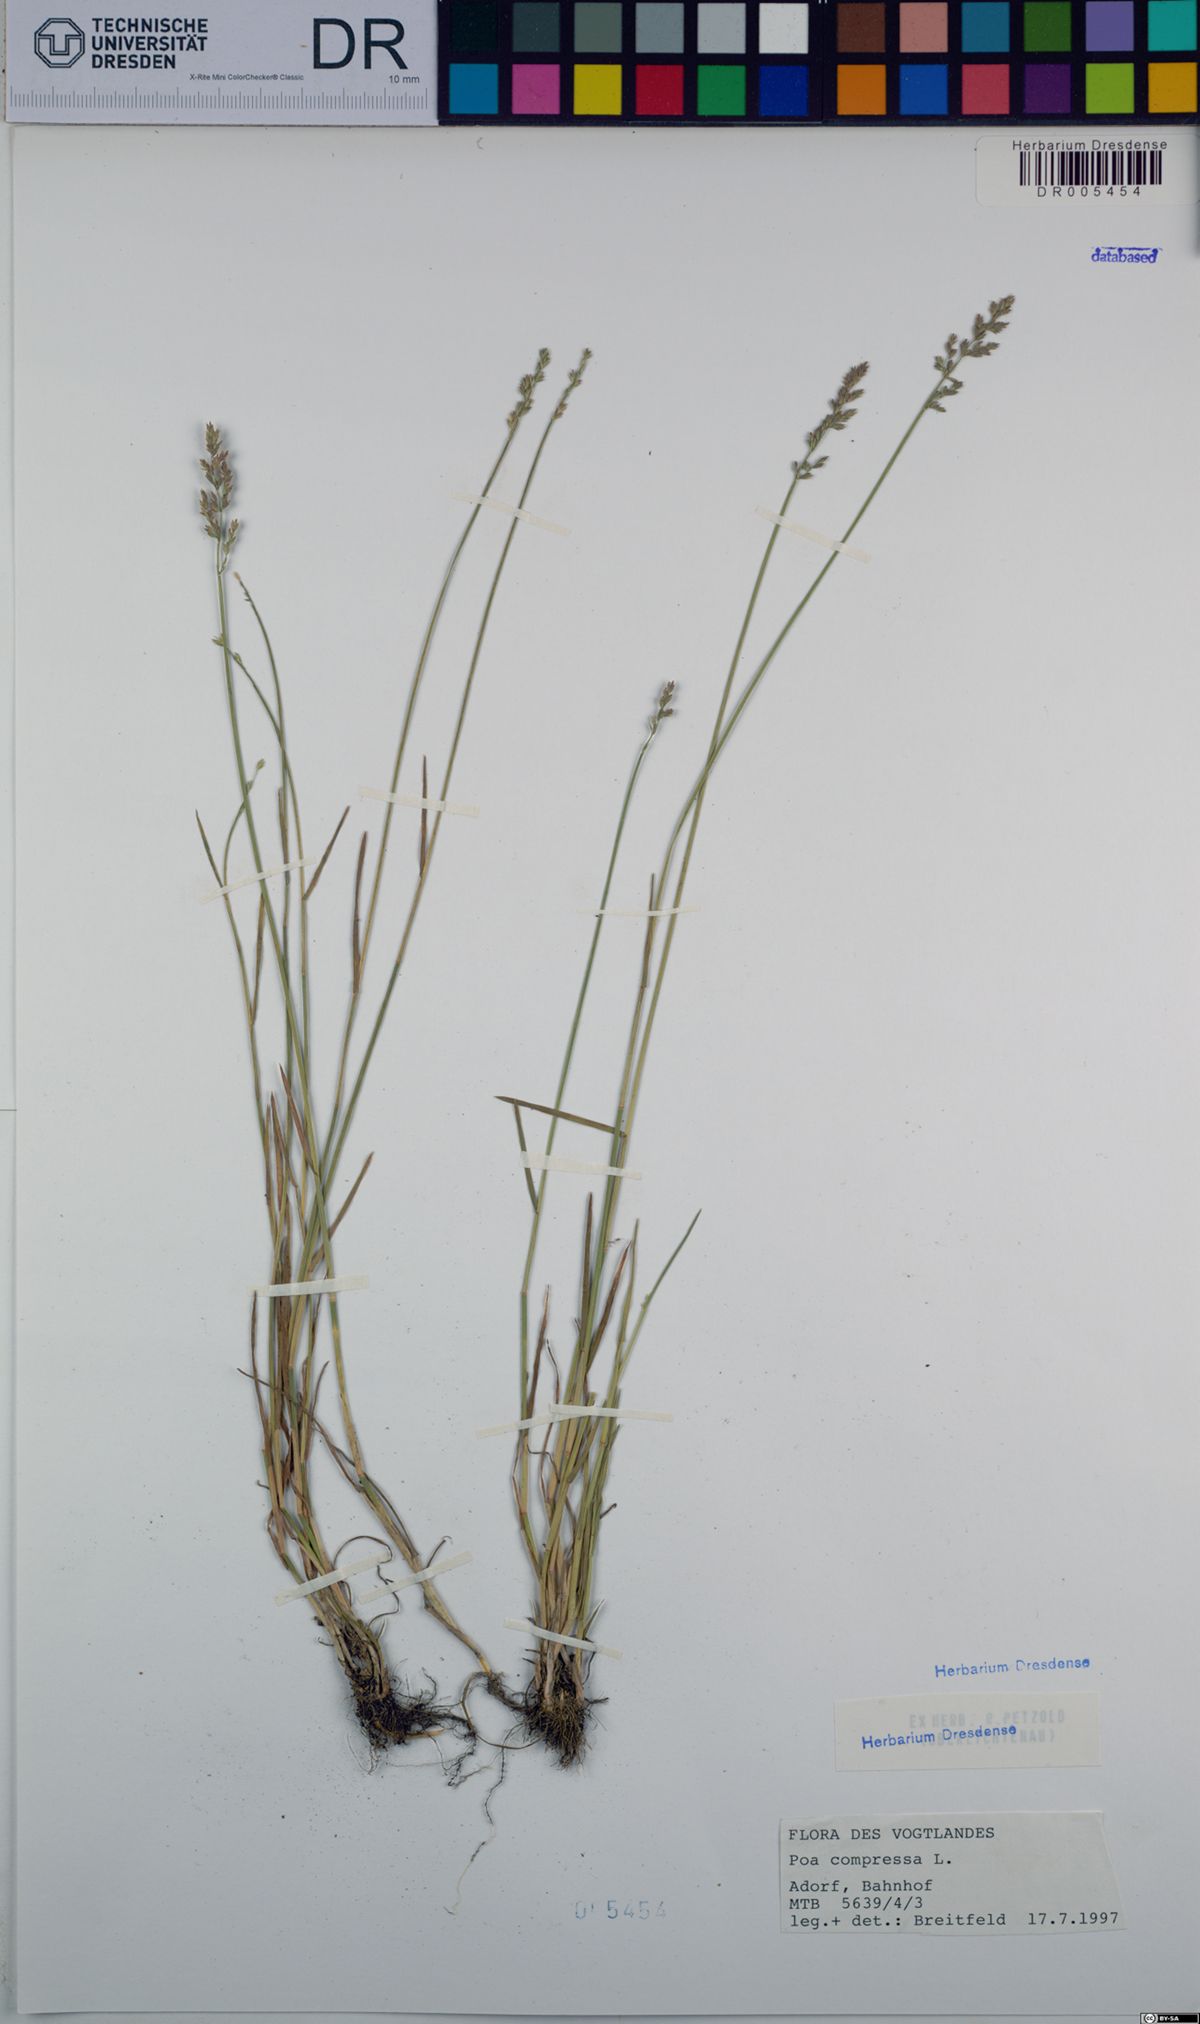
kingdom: Plantae
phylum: Tracheophyta
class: Liliopsida
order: Poales
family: Poaceae
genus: Poa
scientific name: Poa compressa
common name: Canada bluegrass
